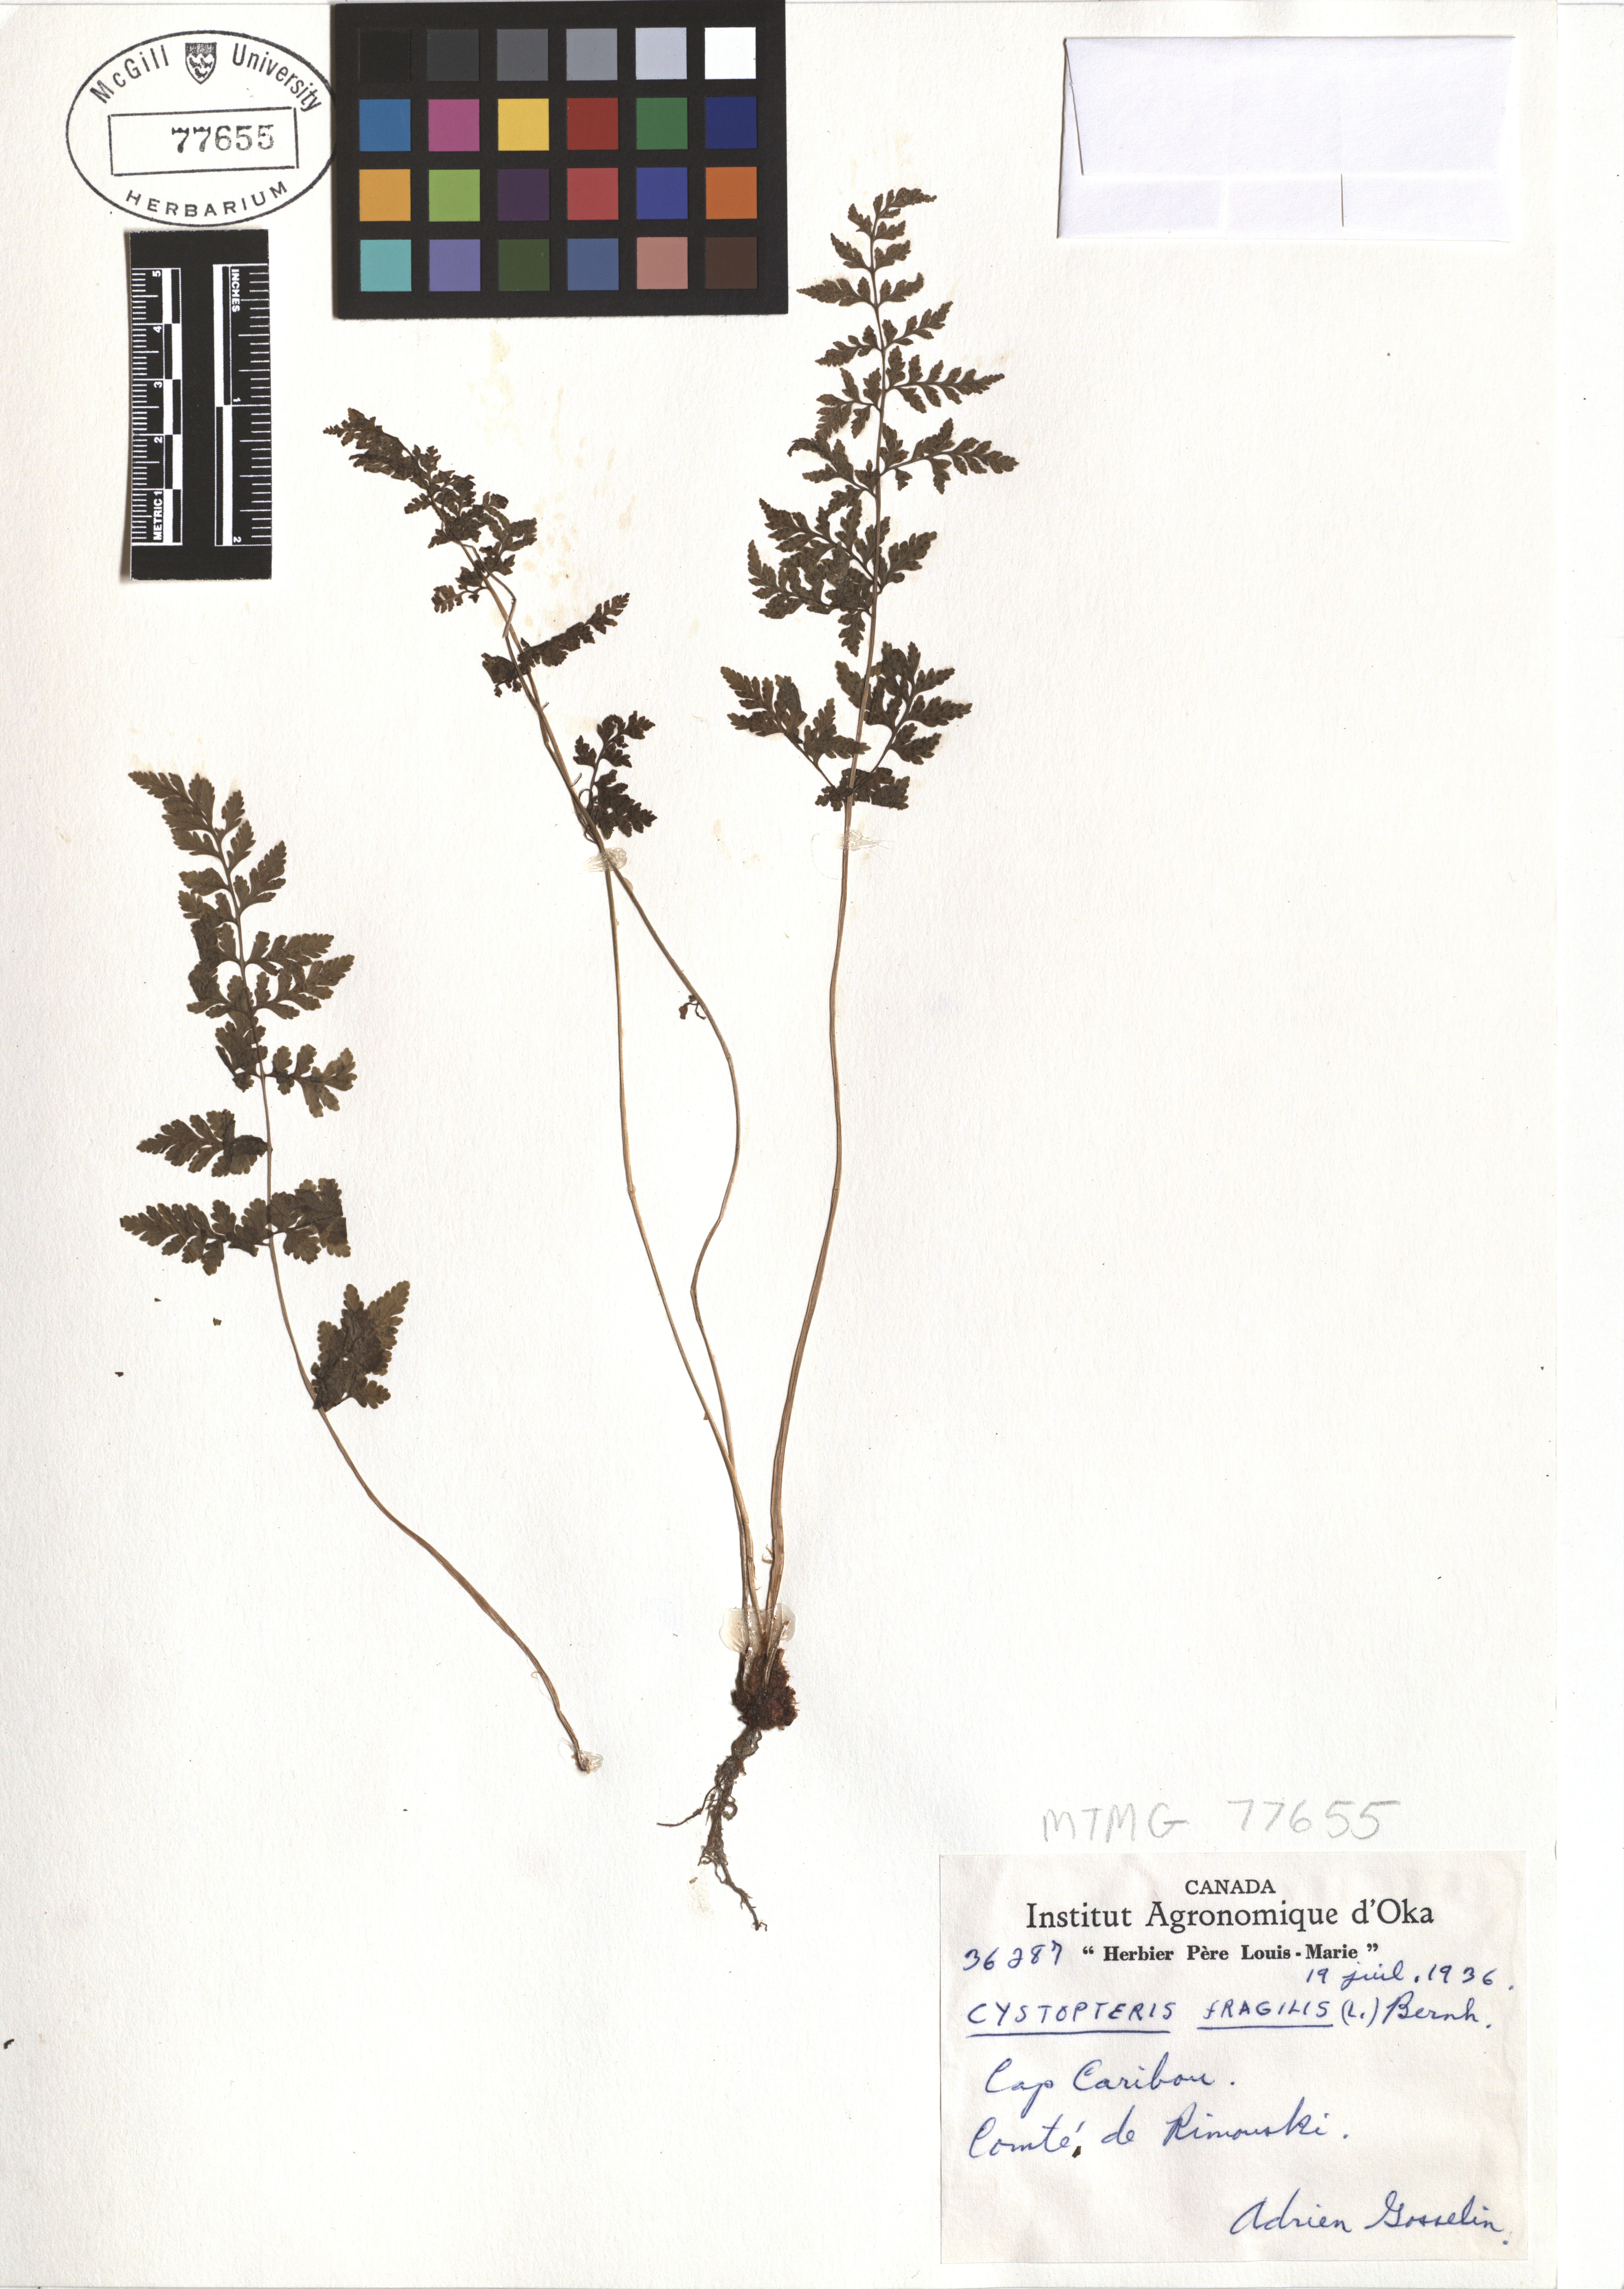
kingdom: Plantae
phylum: Tracheophyta
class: Polypodiopsida
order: Polypodiales
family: Cystopteridaceae
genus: Cystopteris
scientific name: Cystopteris fragilis
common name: Brittle bladder fern
